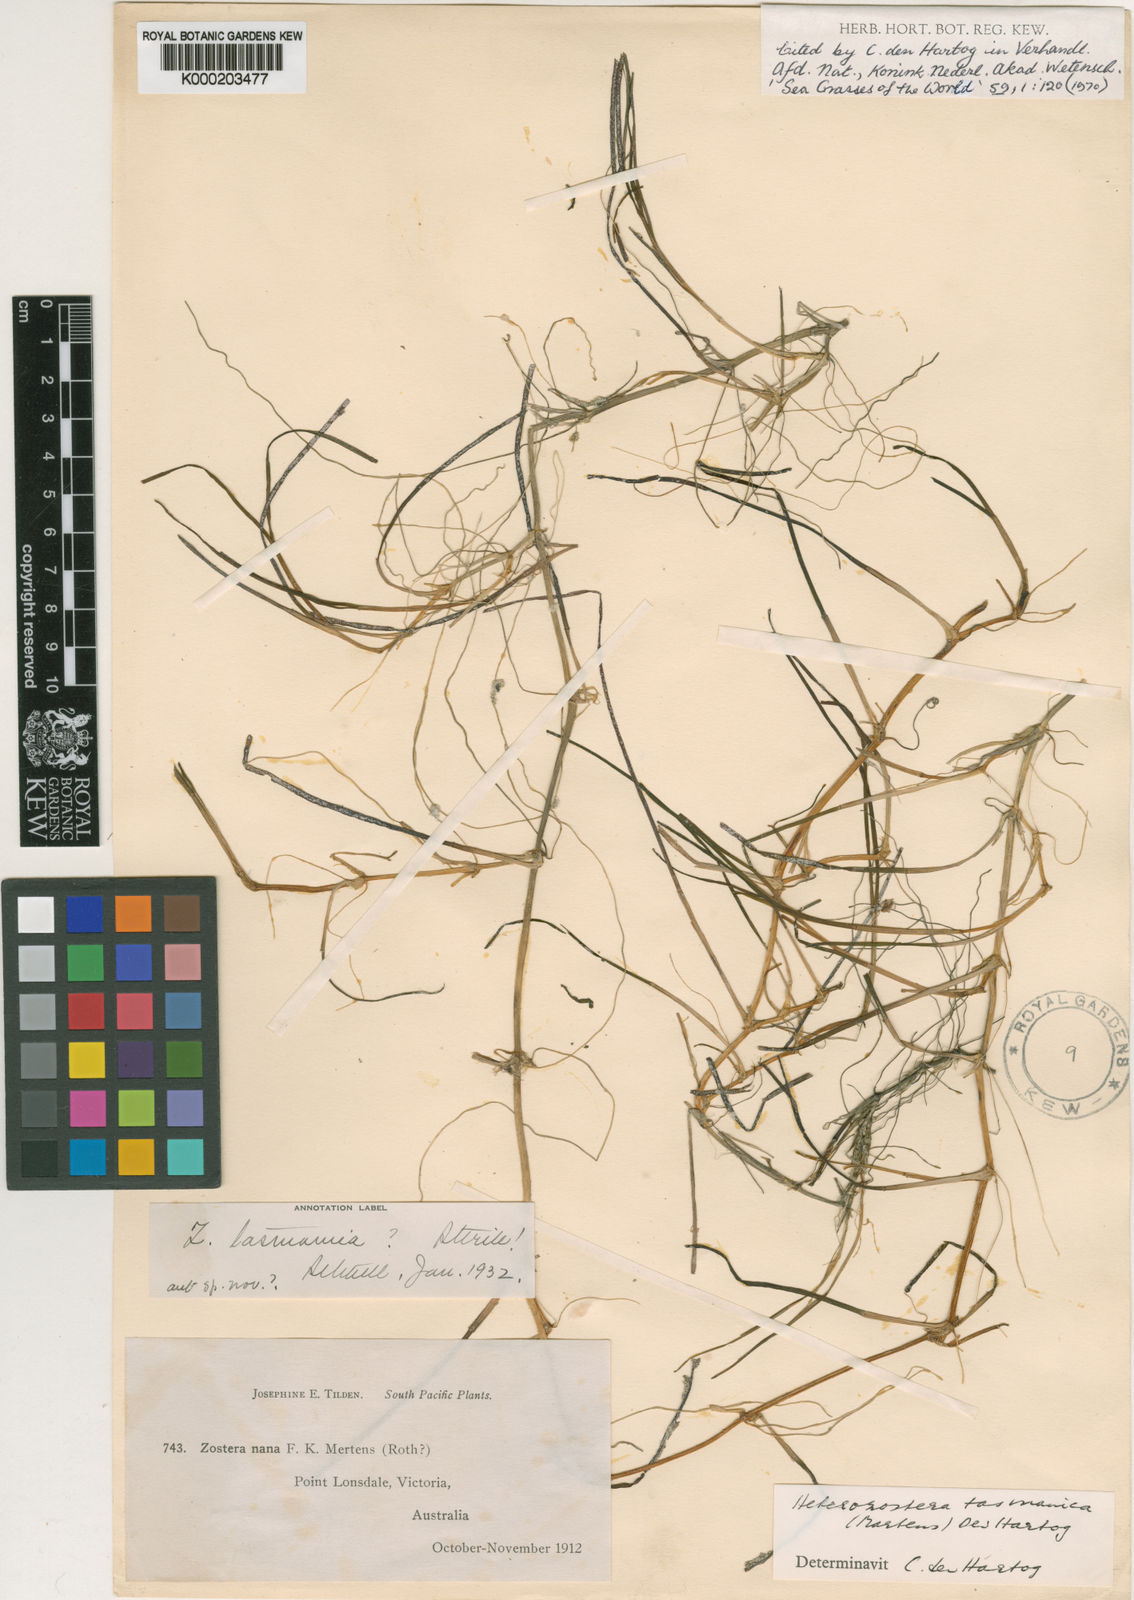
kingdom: Plantae
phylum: Tracheophyta
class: Liliopsida
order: Alismatales
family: Zosteraceae
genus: Zostera
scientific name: Zostera tasmanica
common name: Species code: zt
